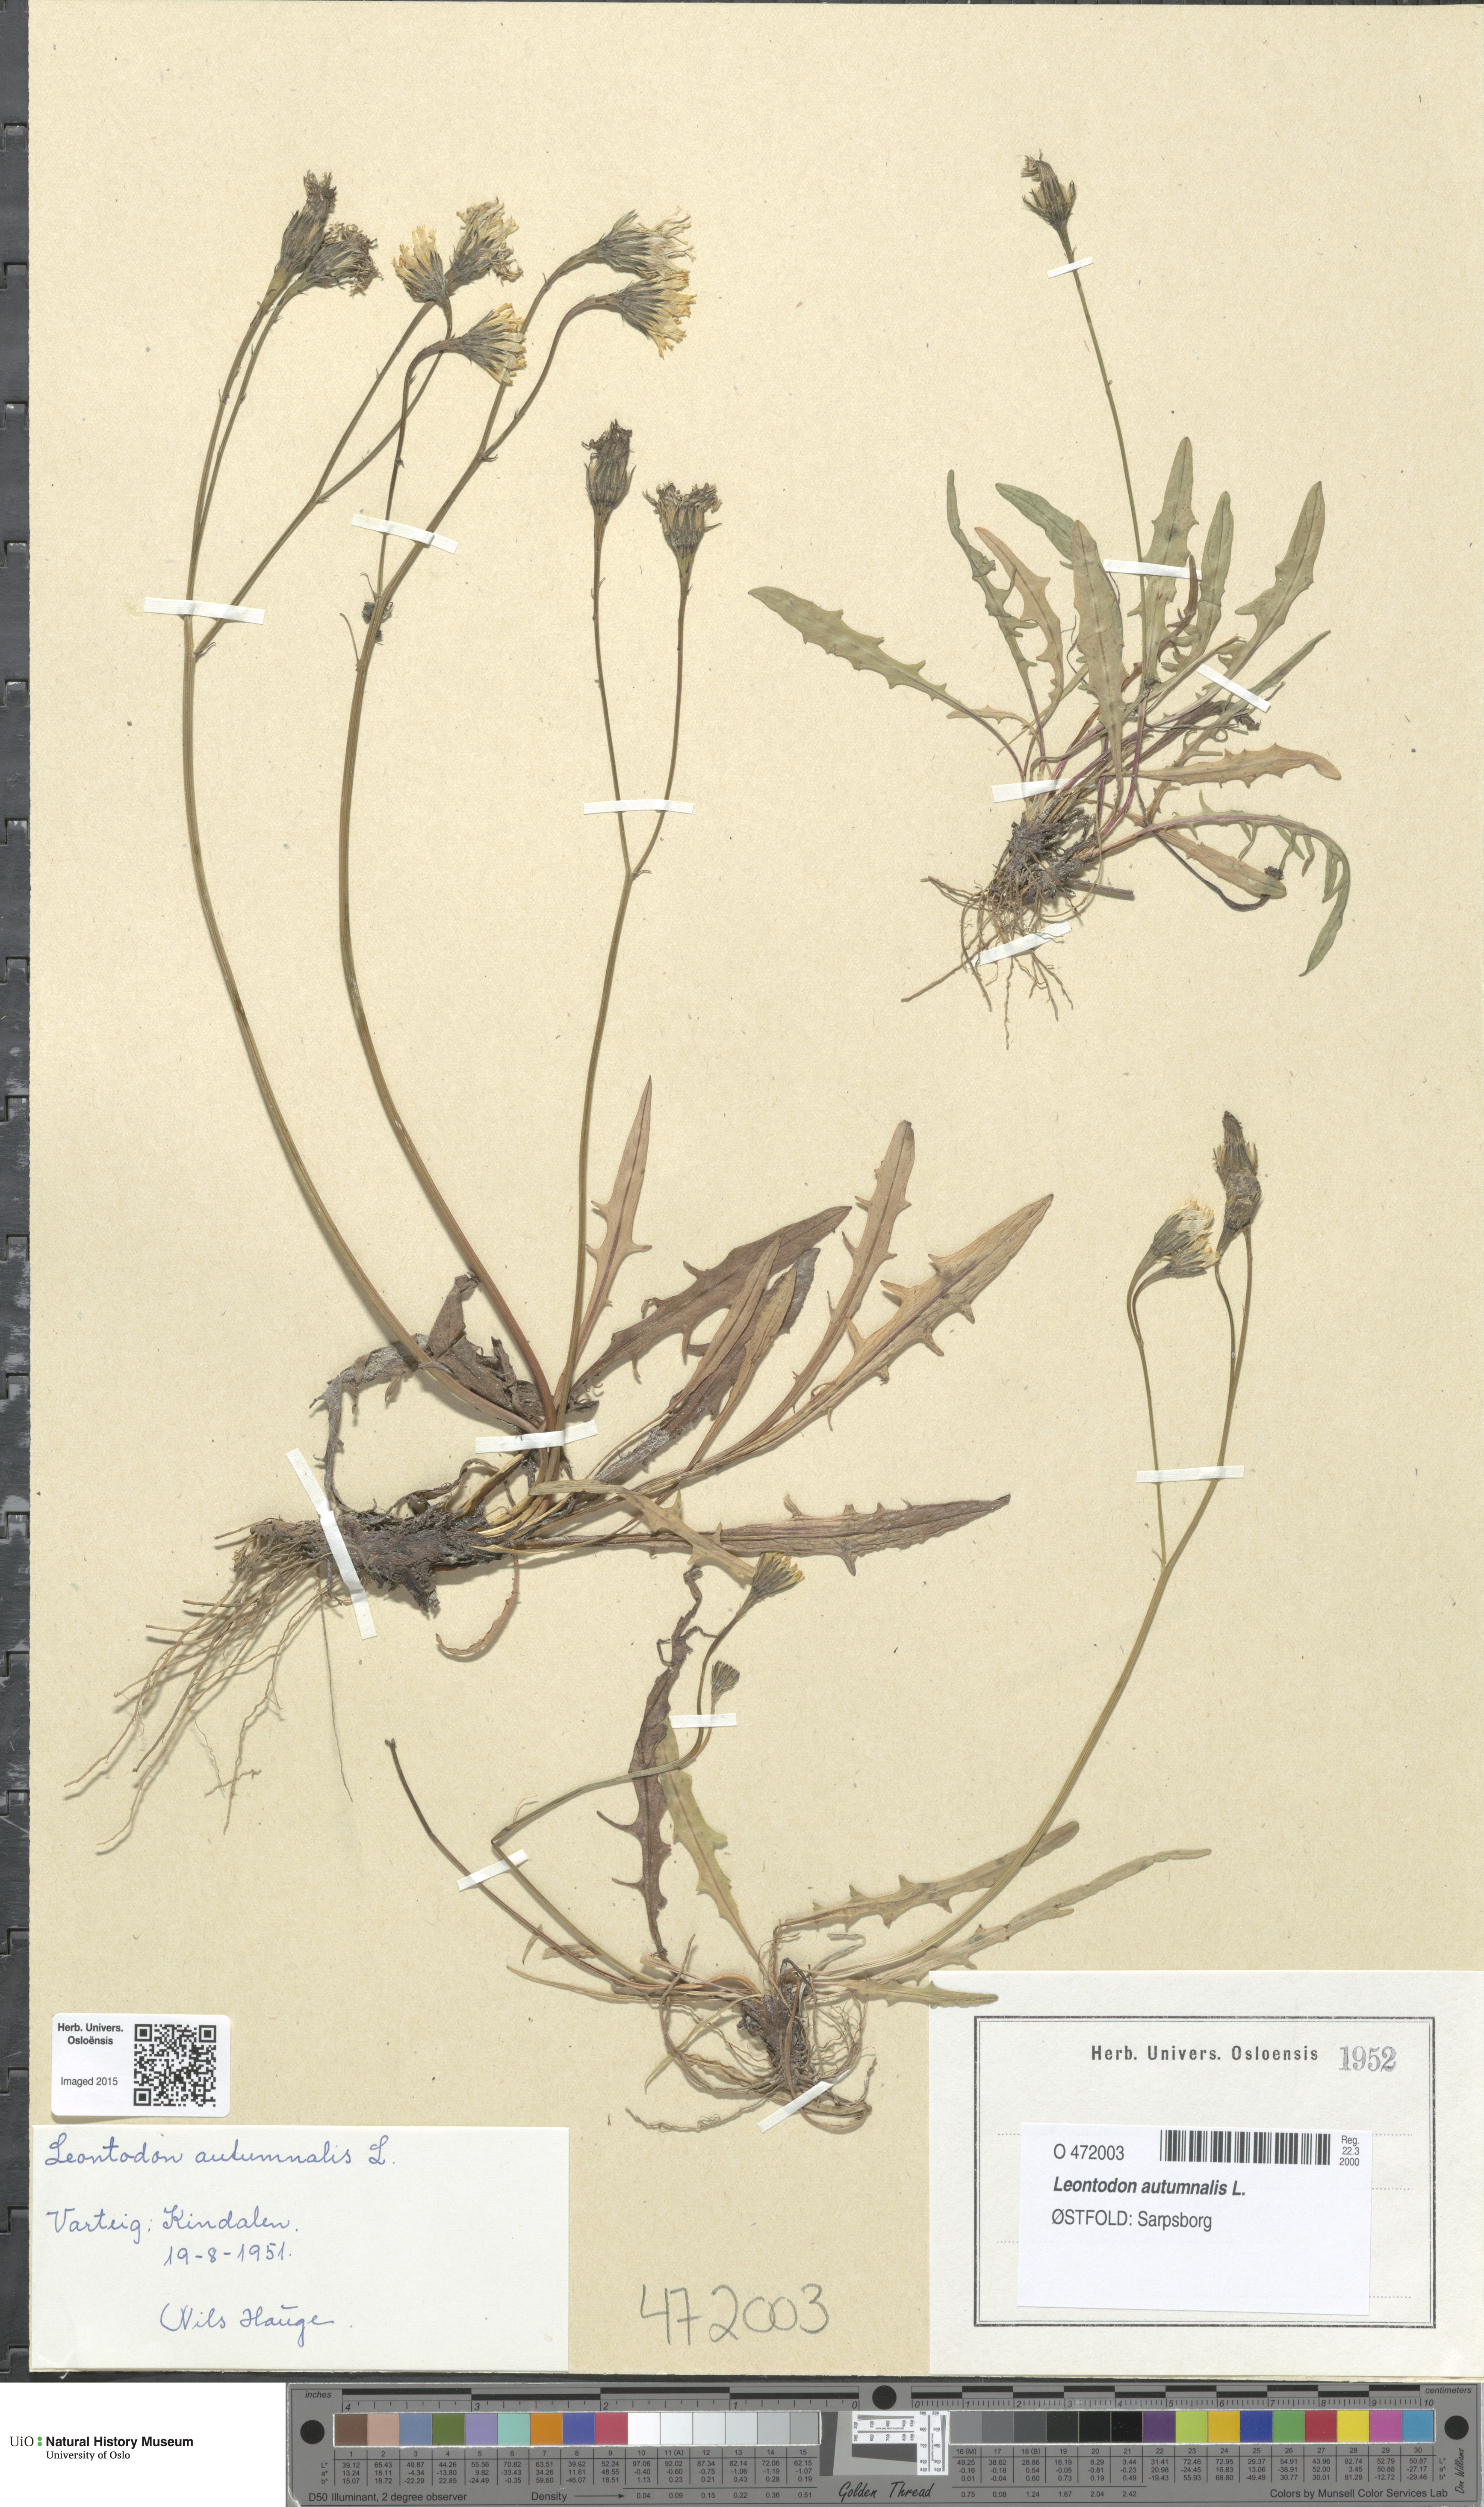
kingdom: Plantae
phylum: Tracheophyta
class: Magnoliopsida
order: Asterales
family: Asteraceae
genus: Scorzoneroides
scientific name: Scorzoneroides autumnalis
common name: Autumn hawkbit
